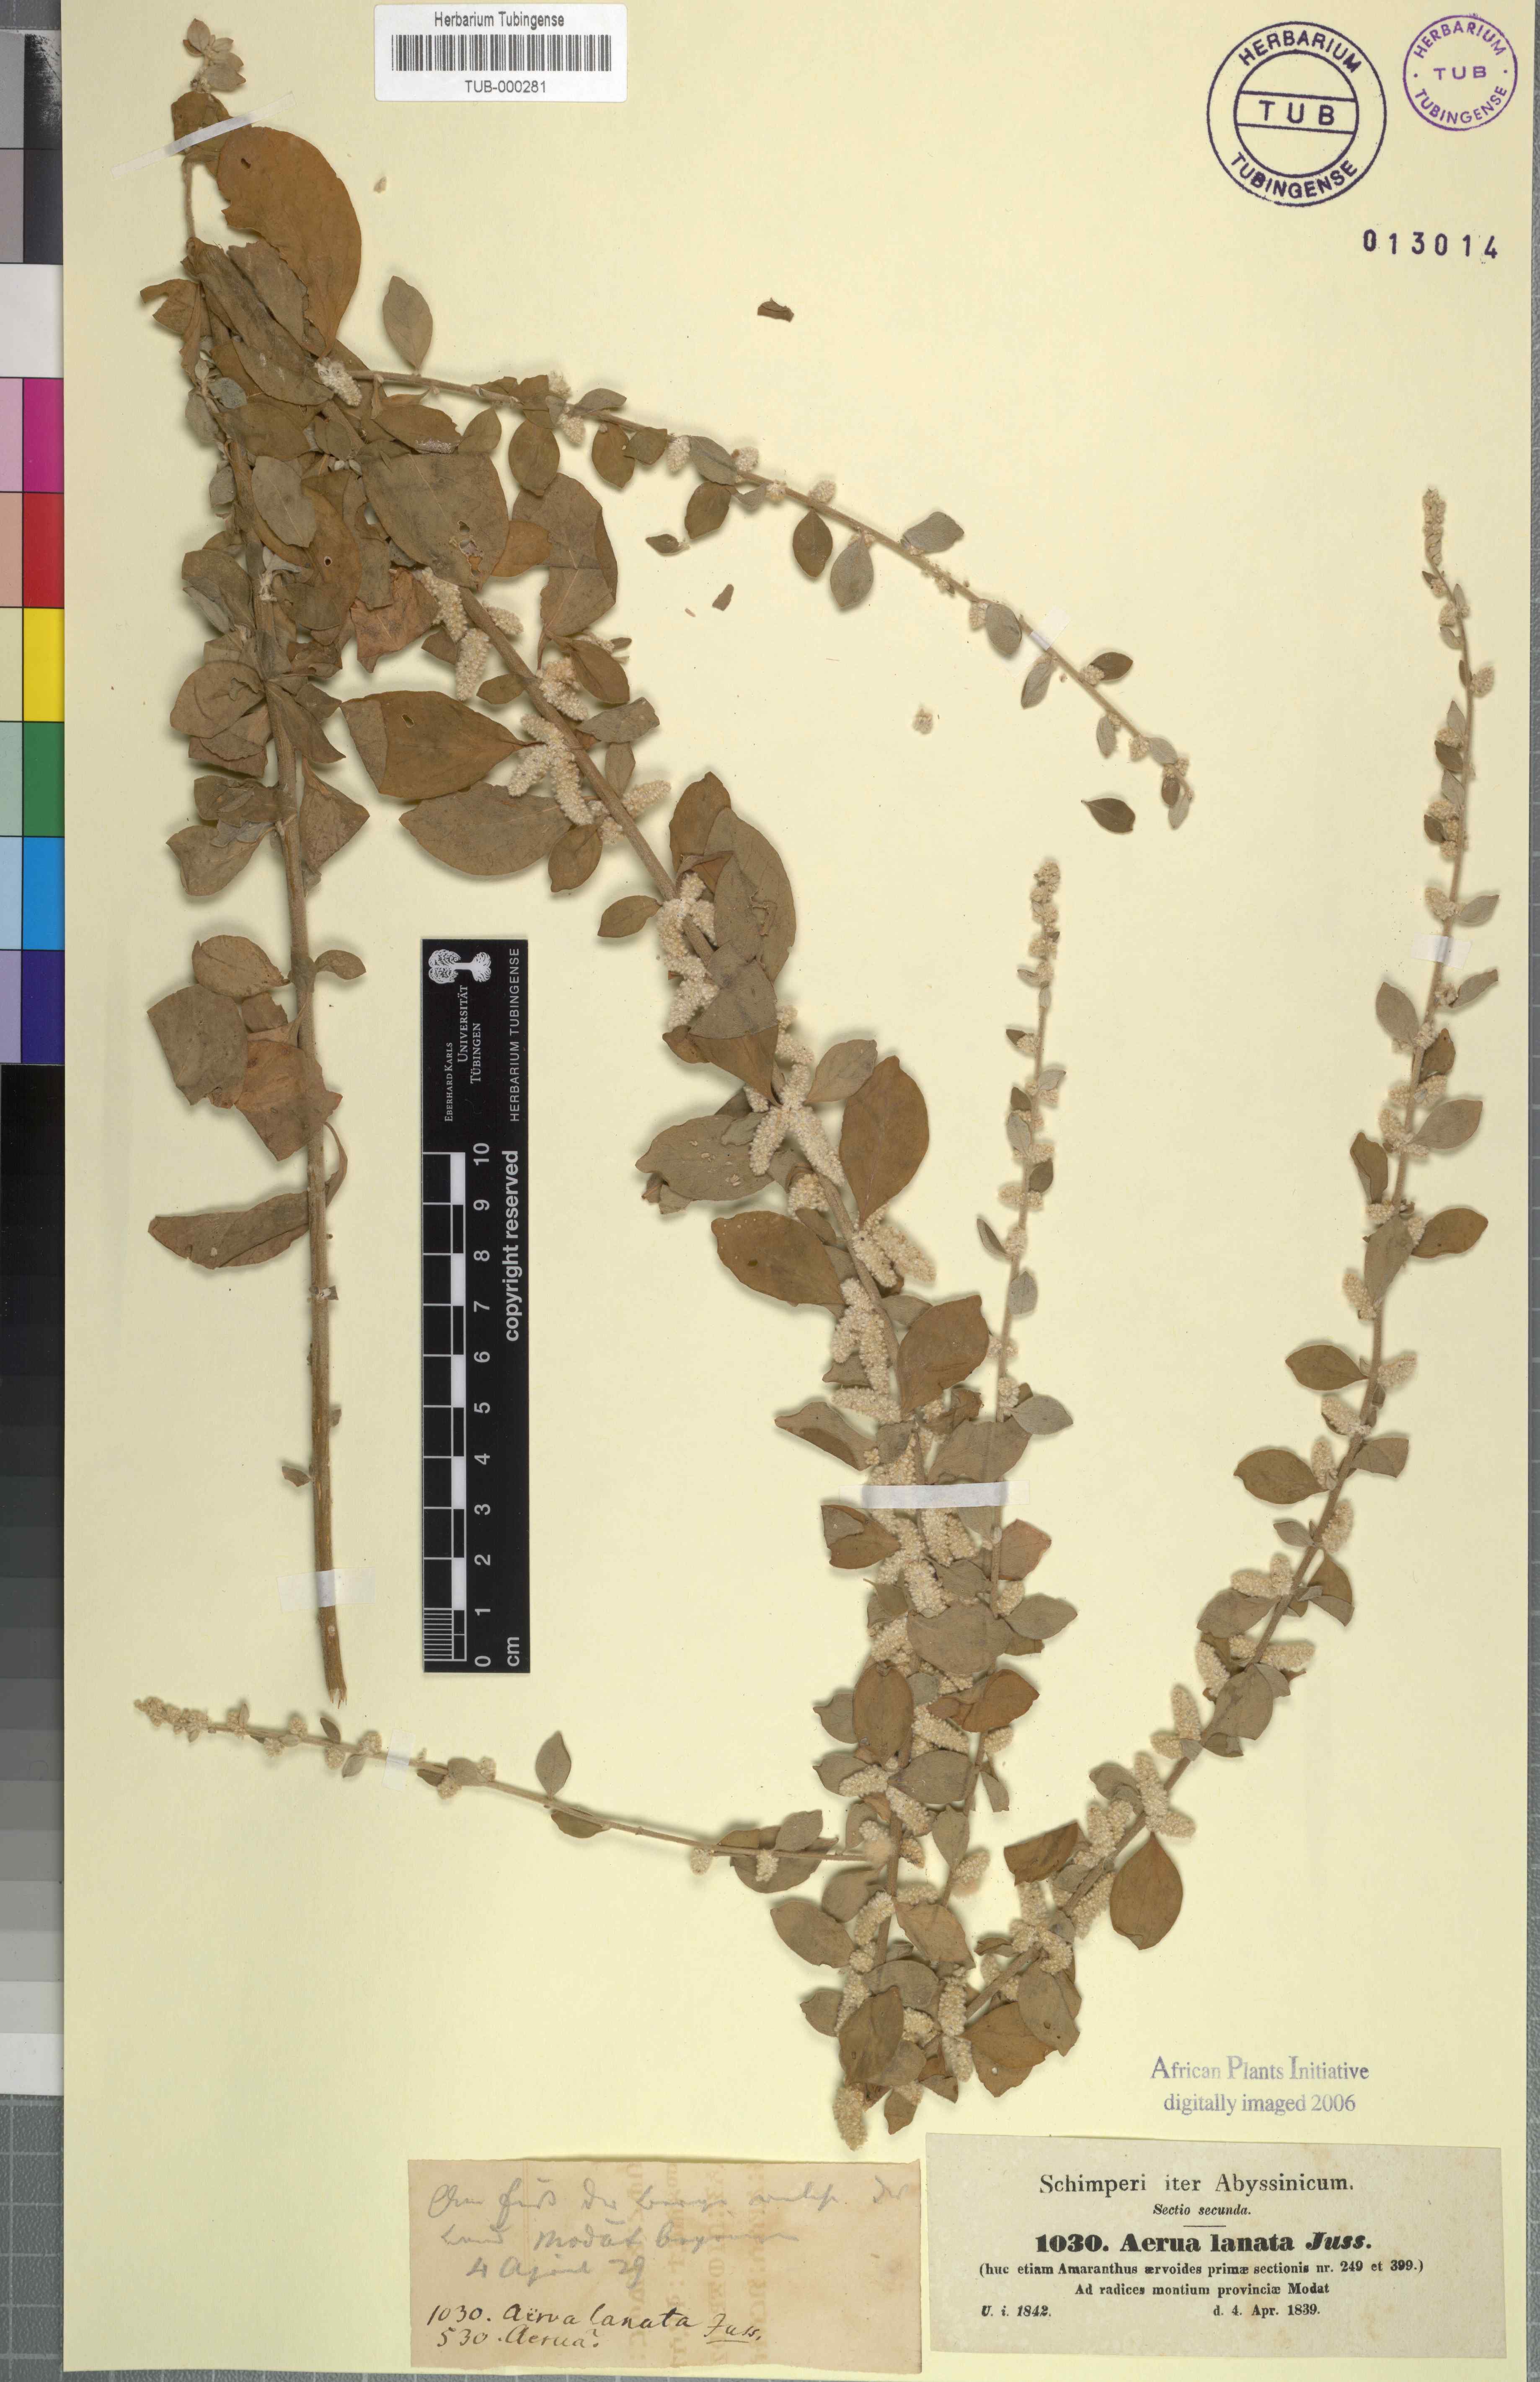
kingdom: Plantae
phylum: Tracheophyta
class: Magnoliopsida
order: Caryophyllales
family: Amaranthaceae
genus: Ouret
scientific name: Ouret lanata
